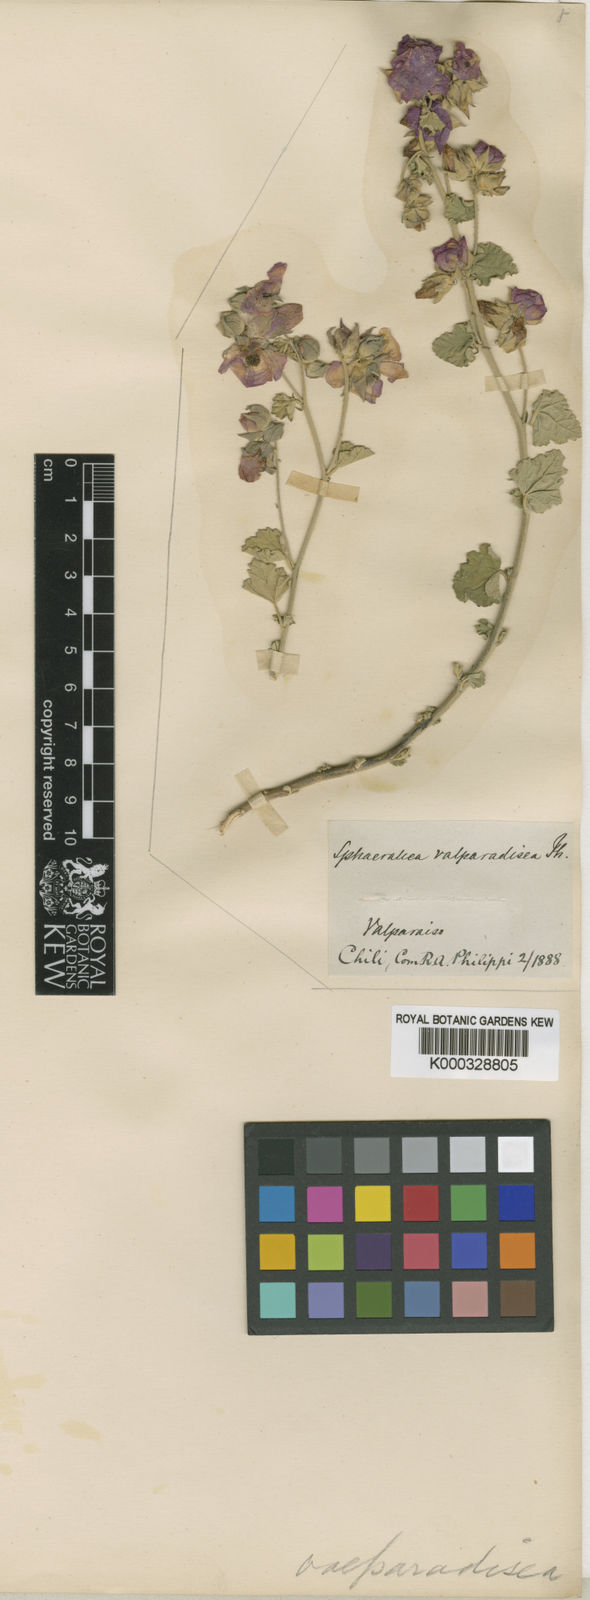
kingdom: Plantae
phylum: Tracheophyta
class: Magnoliopsida
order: Malvales
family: Malvaceae
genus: Sphaeralcea
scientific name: Sphaeralcea purpurata
